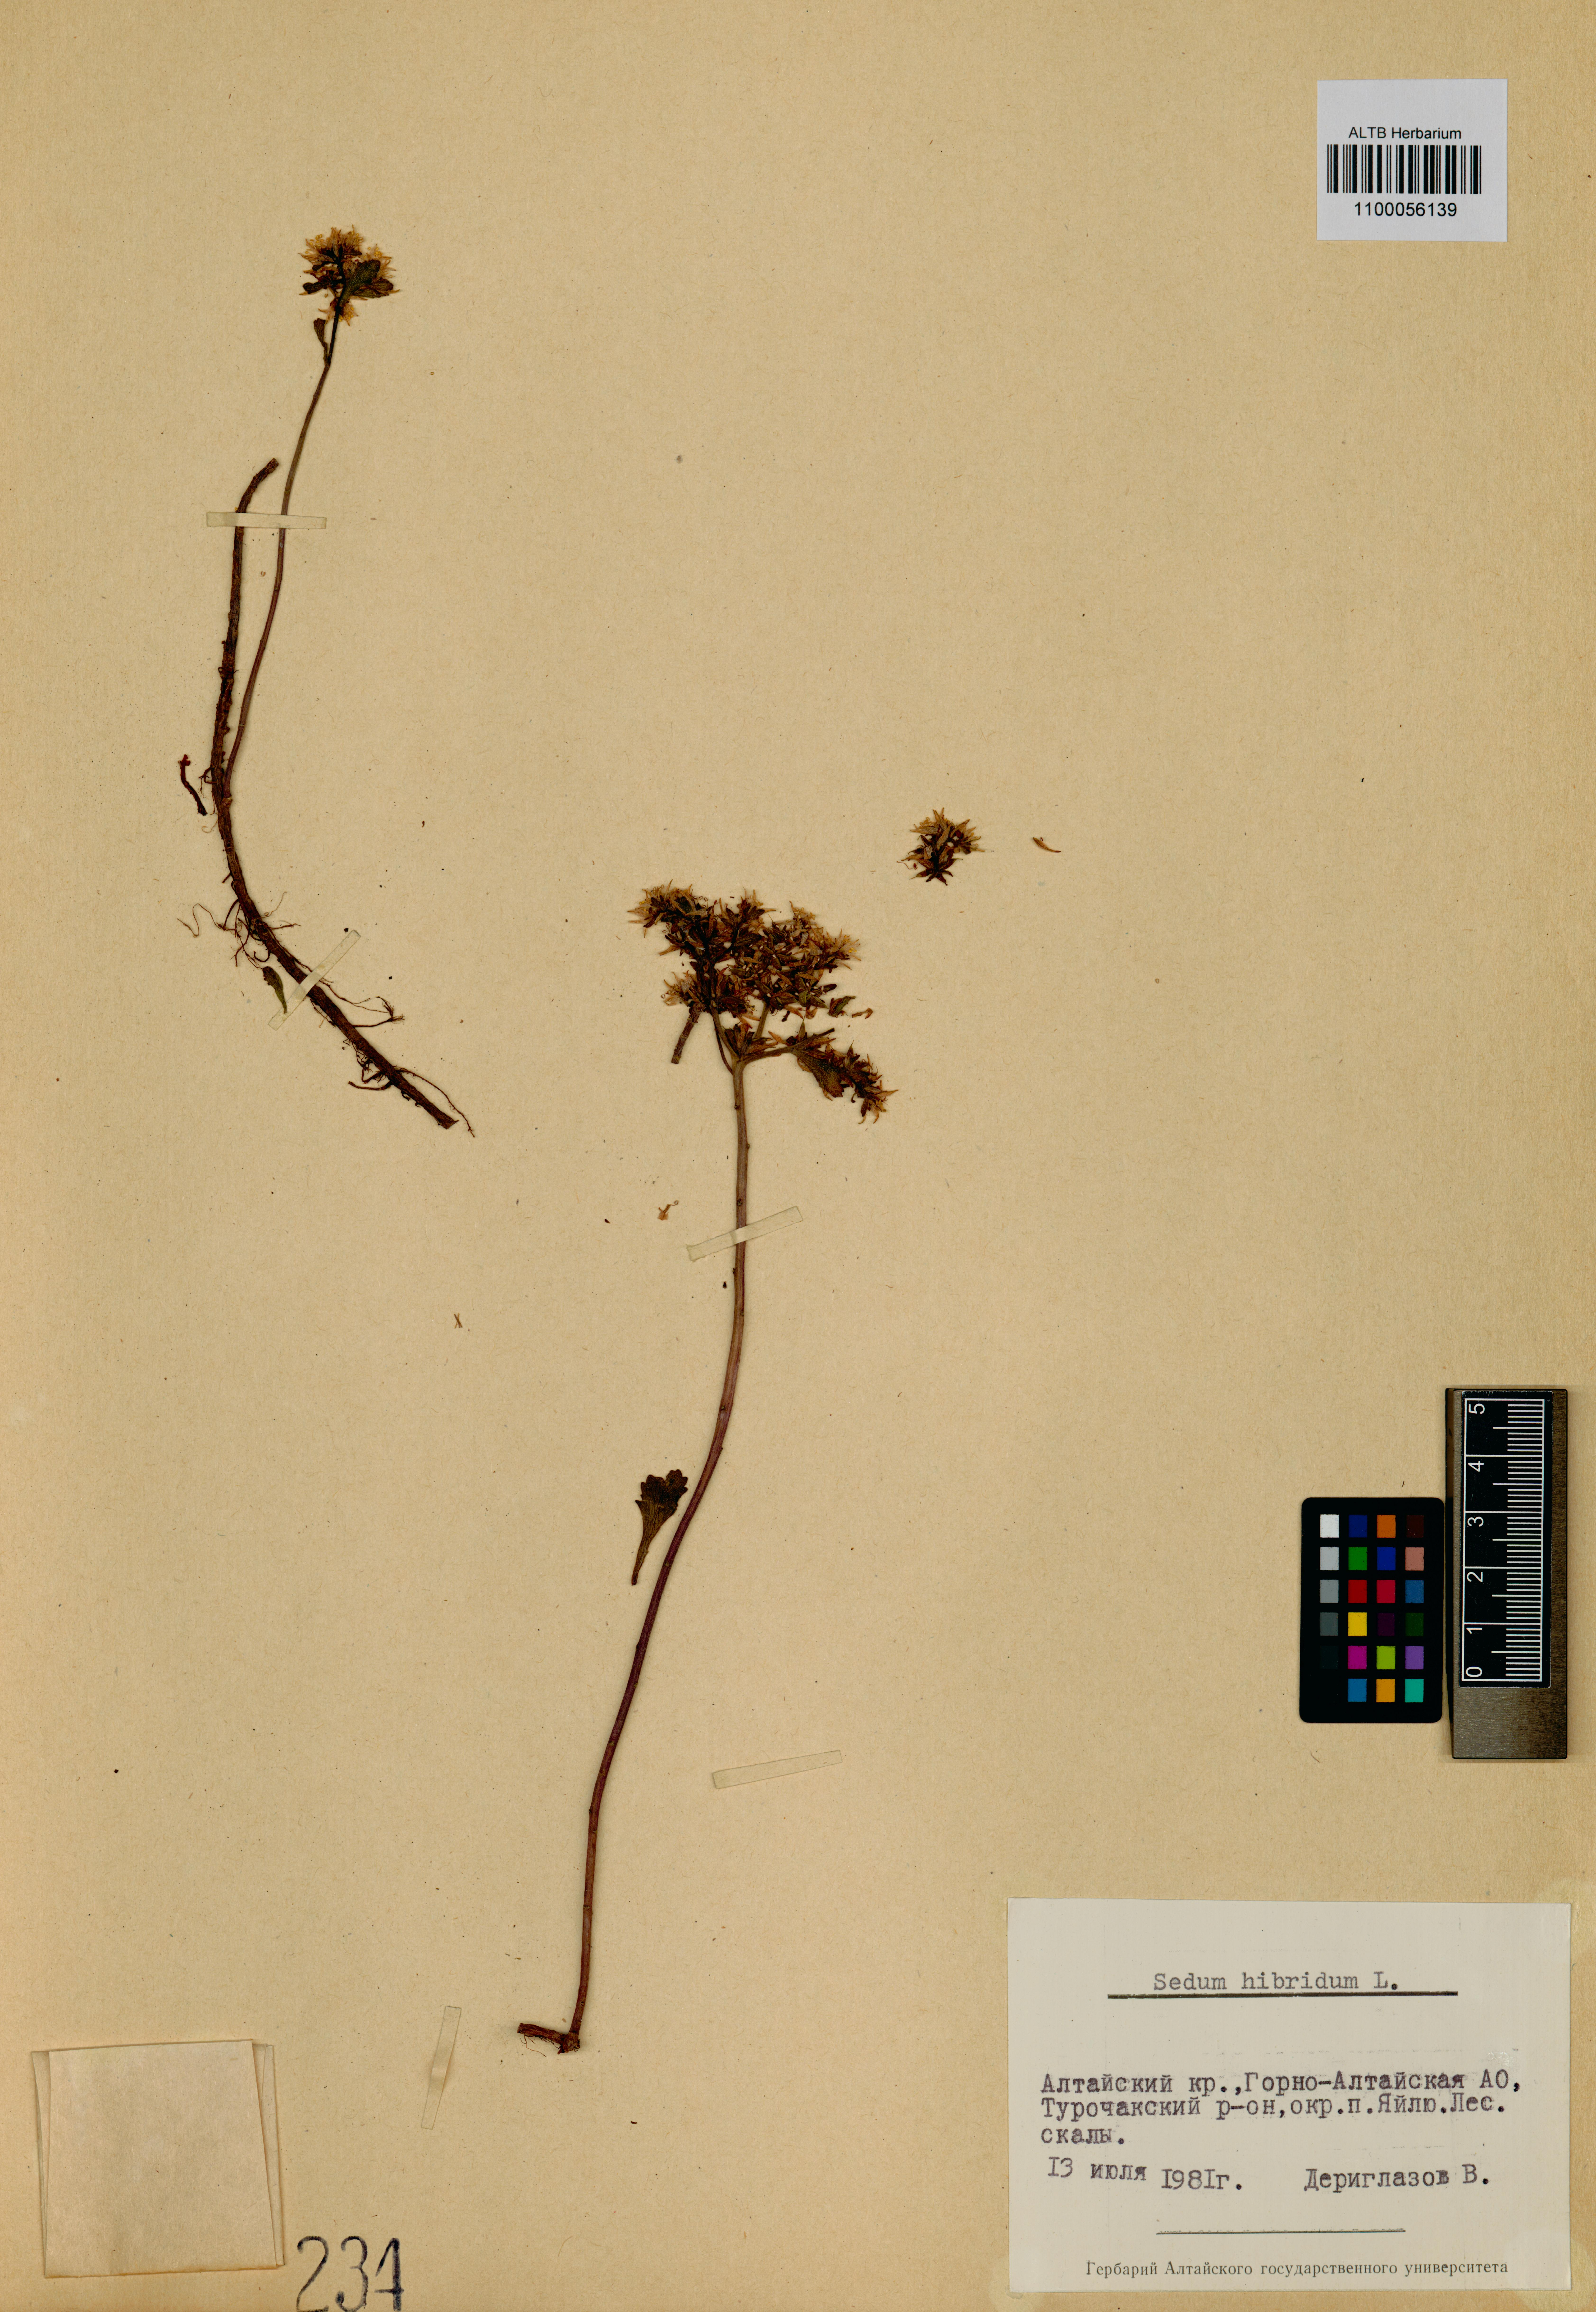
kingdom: Plantae
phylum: Tracheophyta
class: Magnoliopsida
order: Saxifragales
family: Crassulaceae
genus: Phedimus
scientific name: Phedimus hybridus
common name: Hybrid stonecrop
